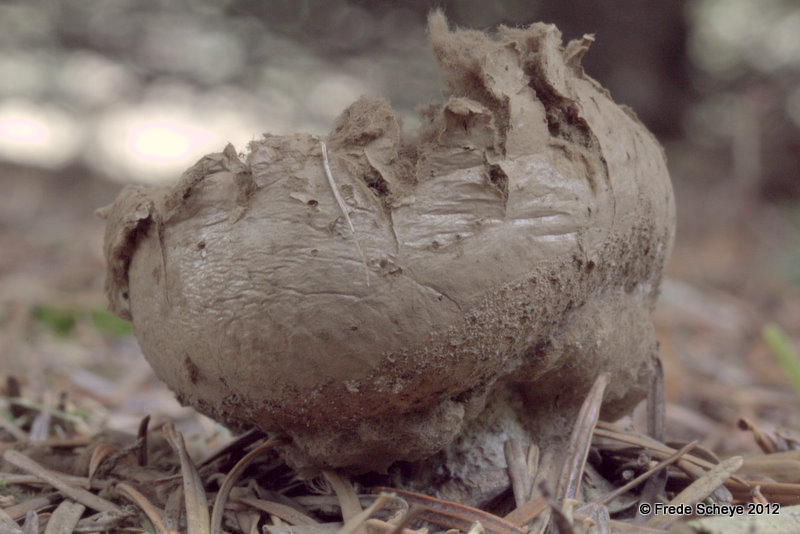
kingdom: Fungi
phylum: Basidiomycota
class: Agaricomycetes
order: Agaricales
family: Lycoperdaceae
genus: Calvatia
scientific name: Calvatia gigantea
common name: kæmpestøvbold
